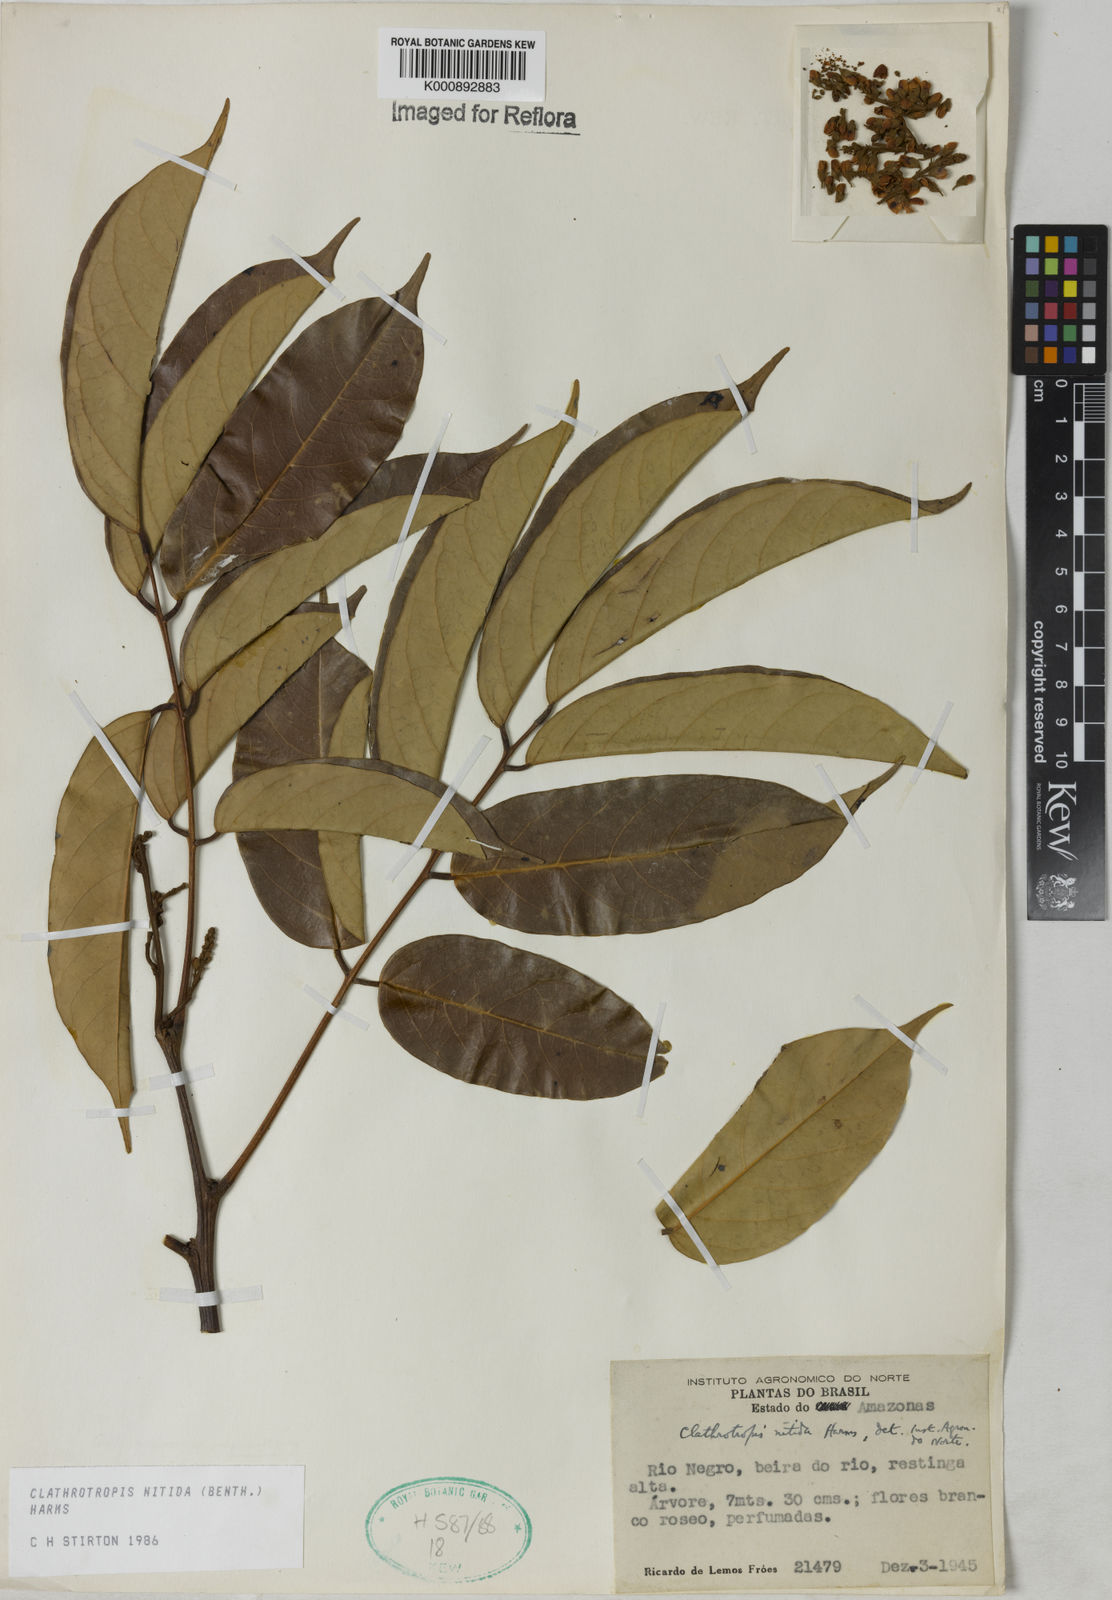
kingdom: Plantae
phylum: Tracheophyta
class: Magnoliopsida
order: Fabales
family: Fabaceae
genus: Clathrotropis
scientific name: Clathrotropis nitida
